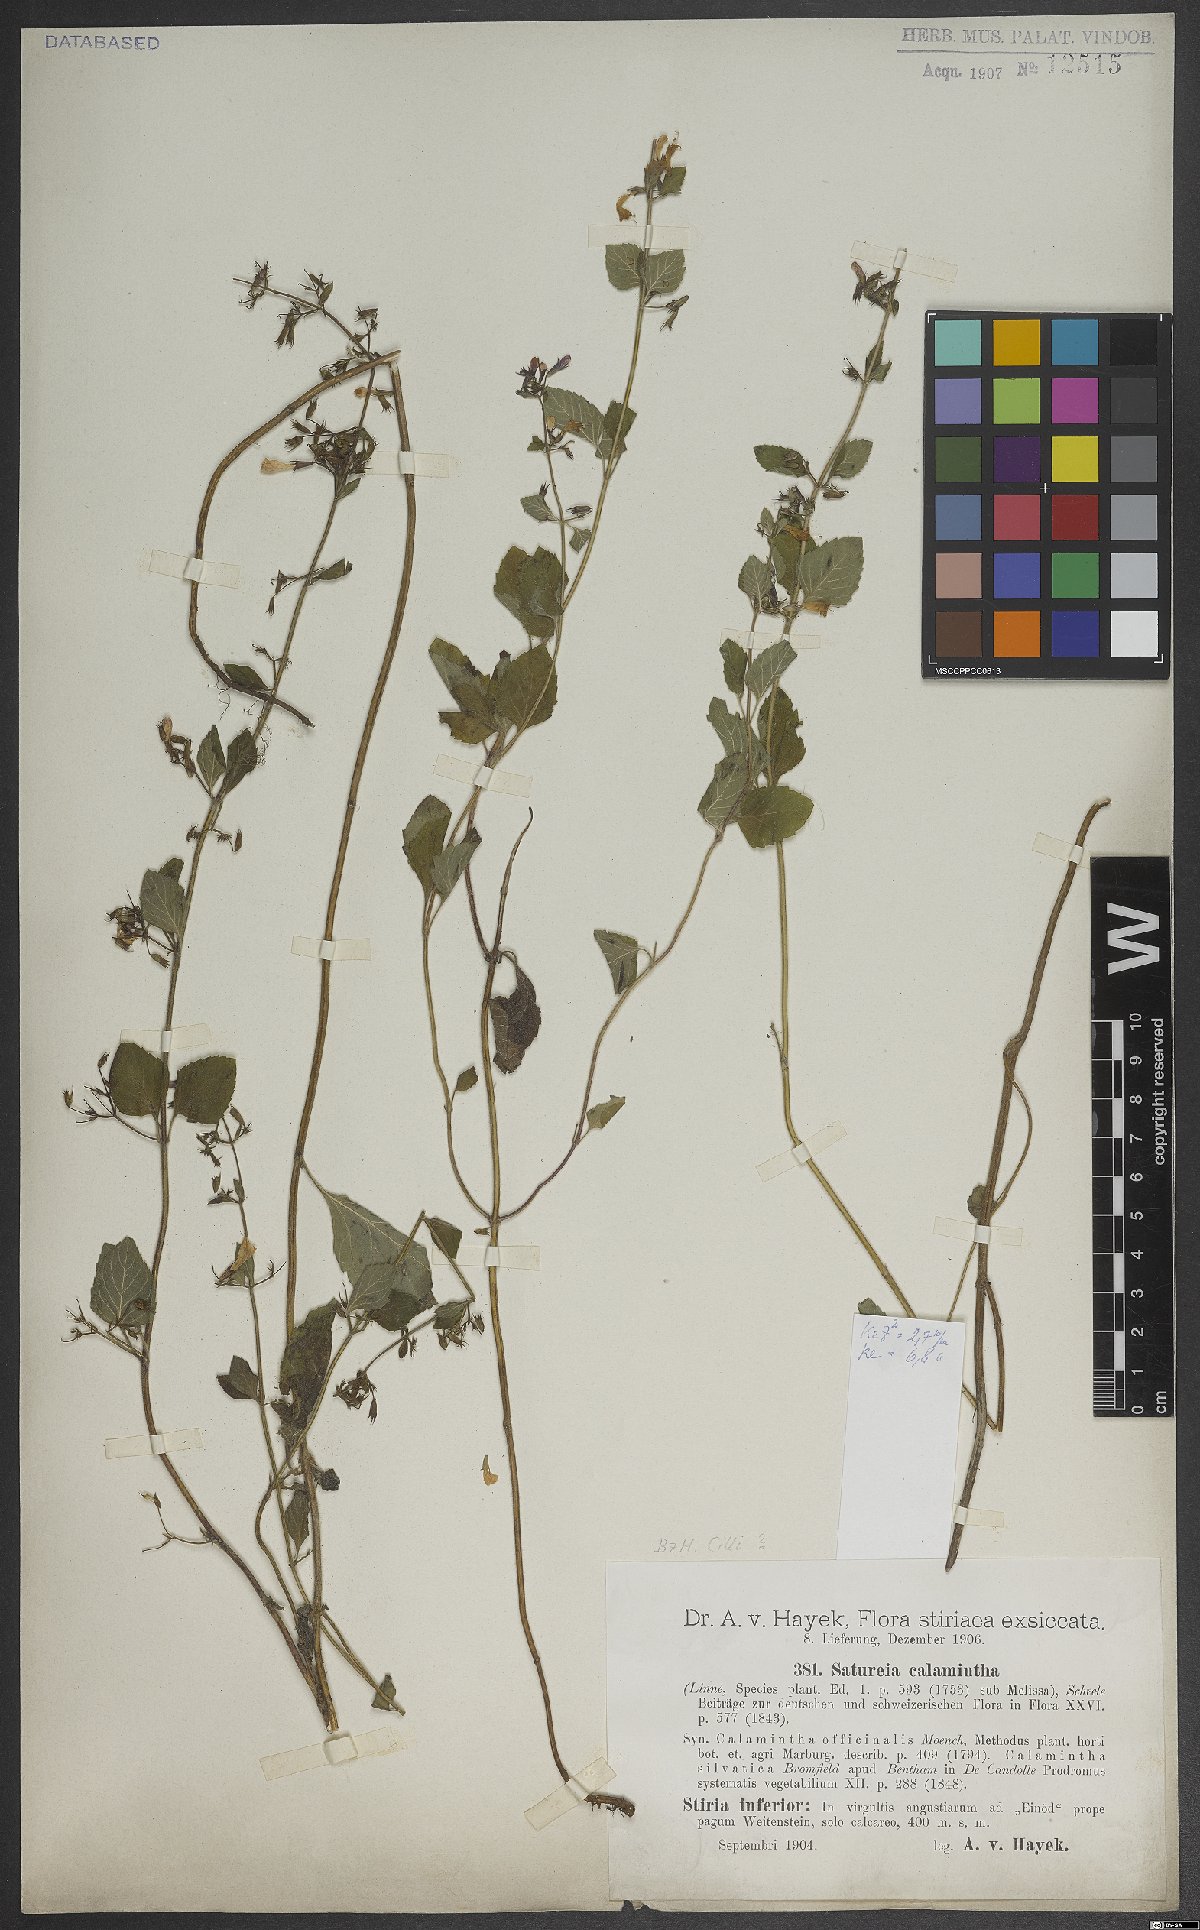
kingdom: Plantae
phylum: Tracheophyta
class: Magnoliopsida
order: Lamiales
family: Lamiaceae
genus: Clinopodium
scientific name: Clinopodium menthifolium
